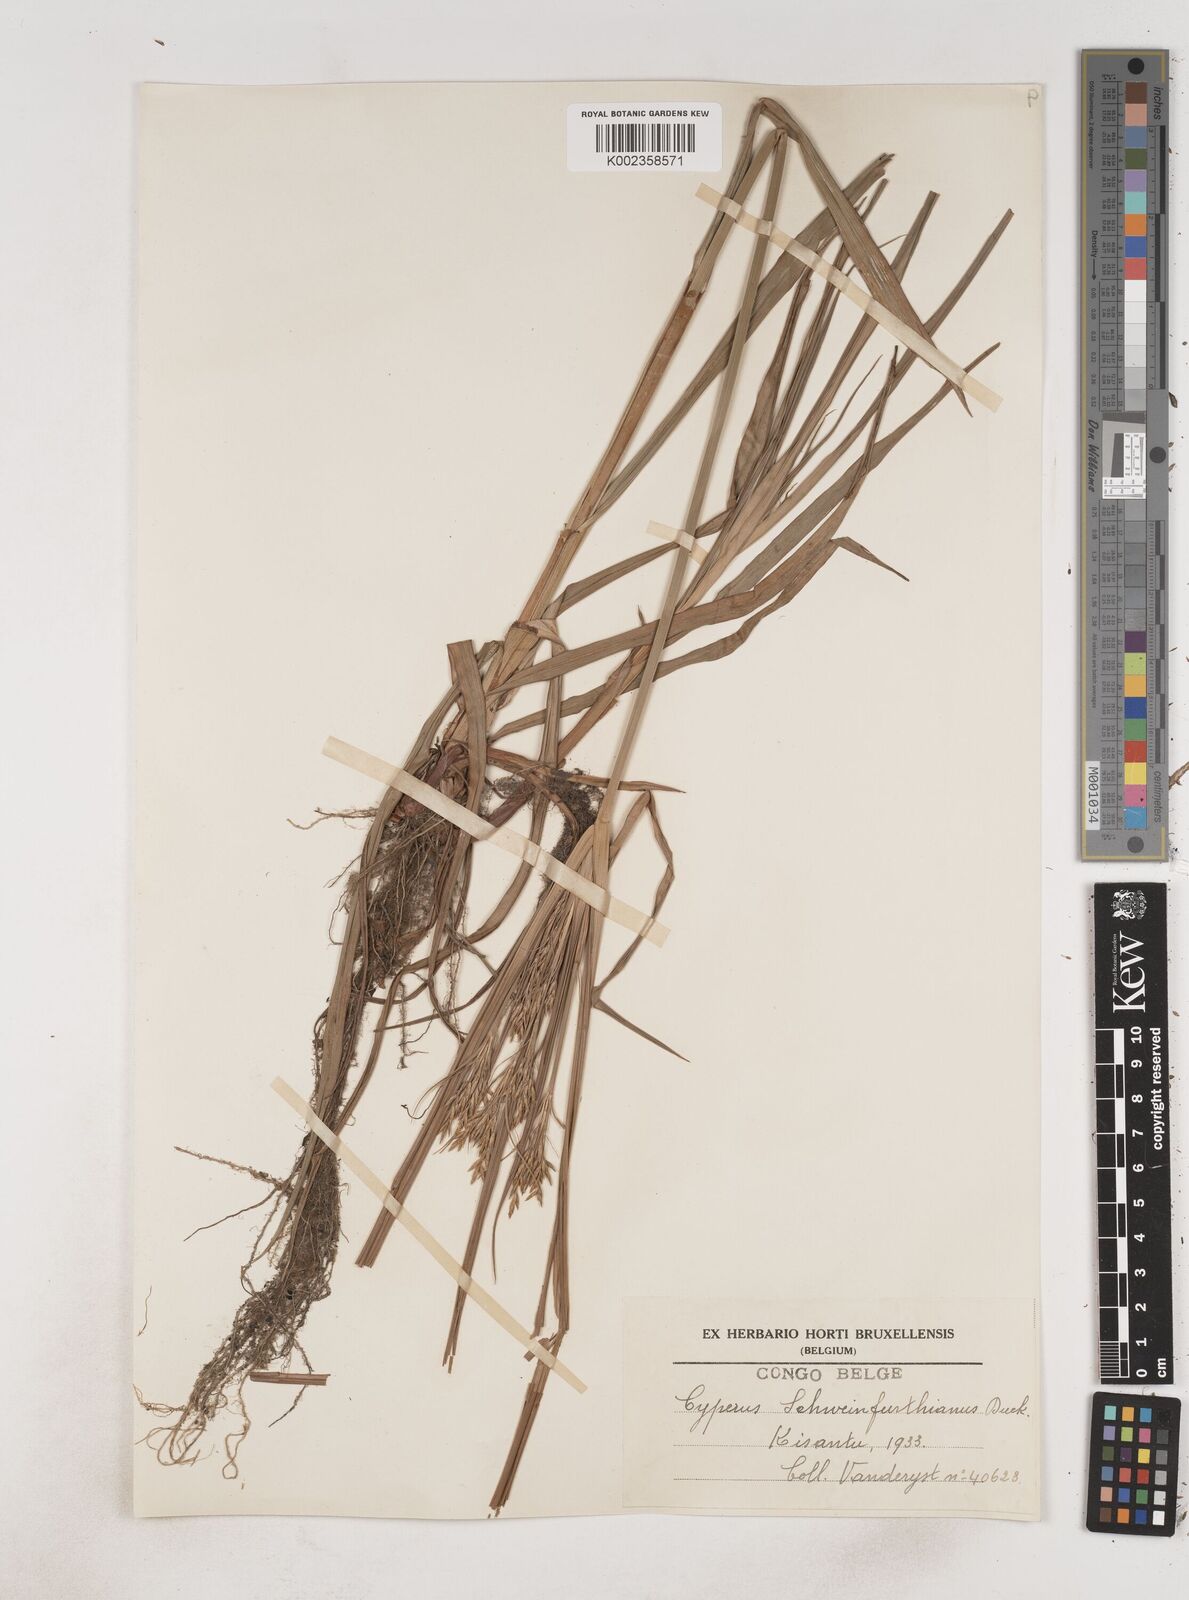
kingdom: Plantae
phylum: Tracheophyta
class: Liliopsida
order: Poales
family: Cyperaceae
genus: Cyperus
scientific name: Cyperus tenuiculmis
